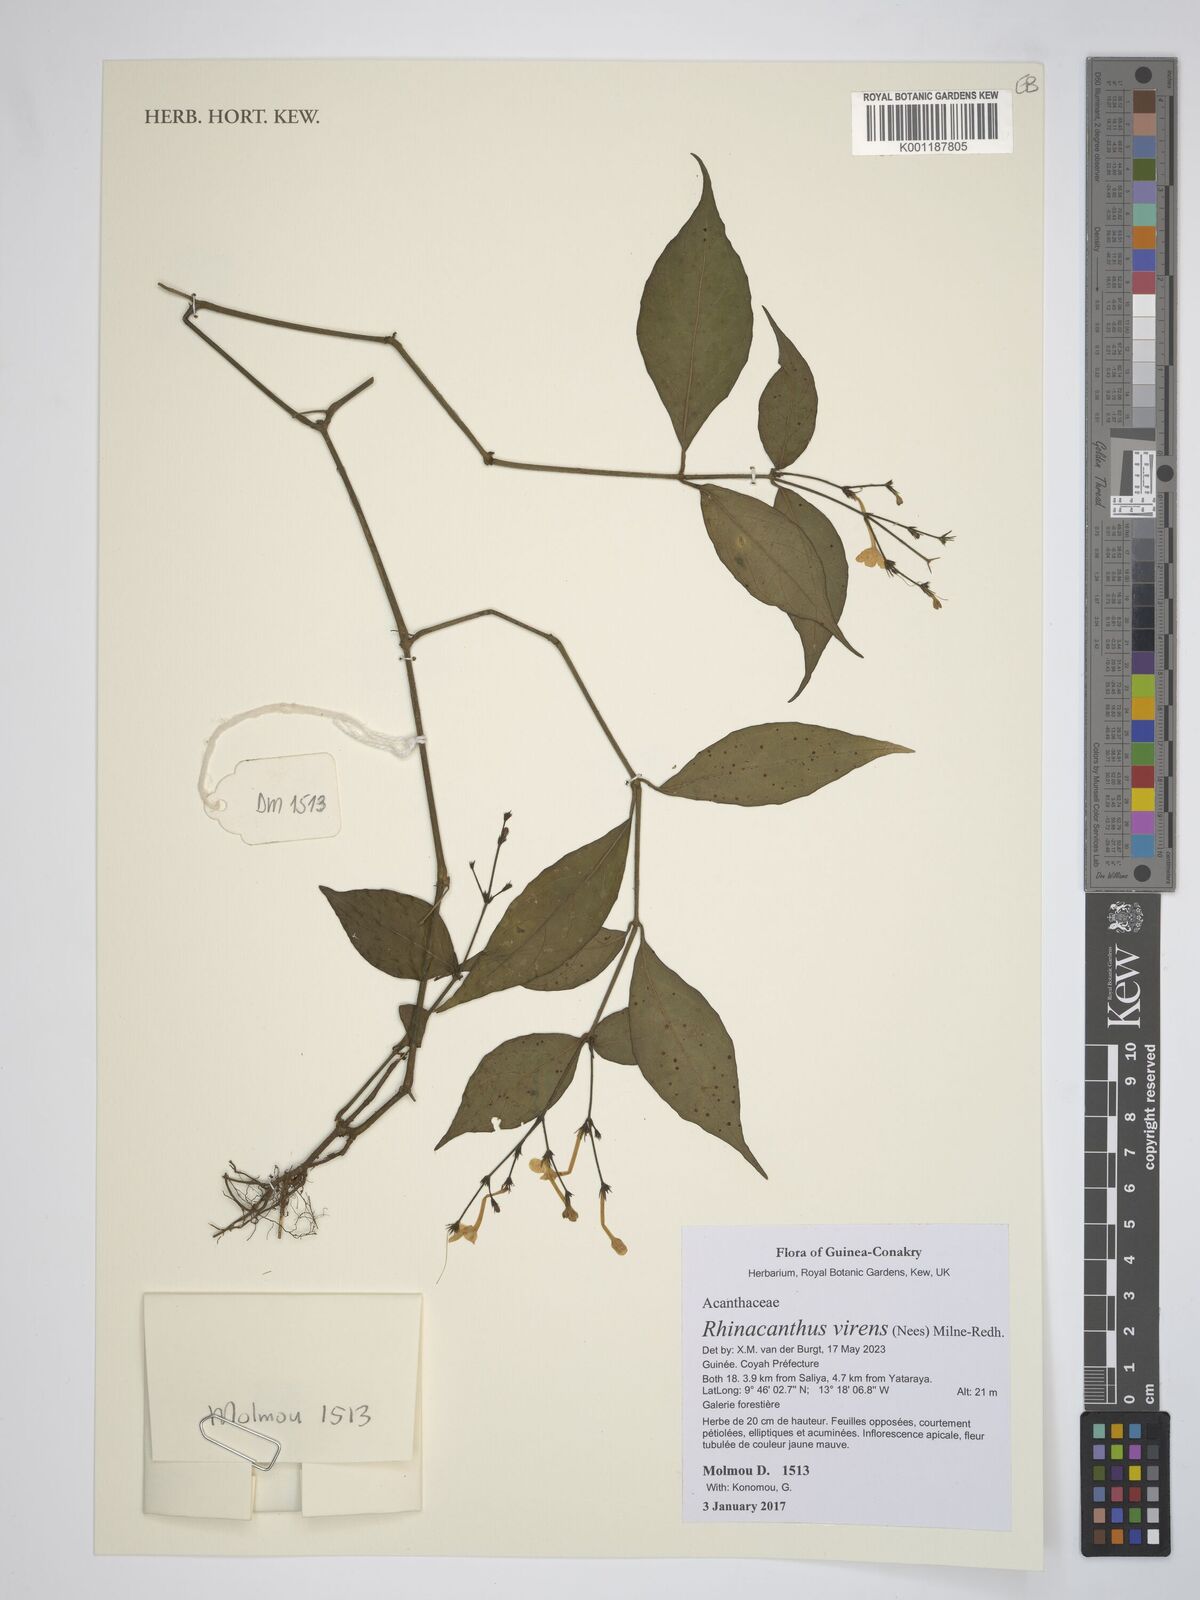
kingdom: Plantae
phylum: Tracheophyta
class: Magnoliopsida
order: Lamiales
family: Acanthaceae
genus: Rhinacanthus
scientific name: Rhinacanthus virens
